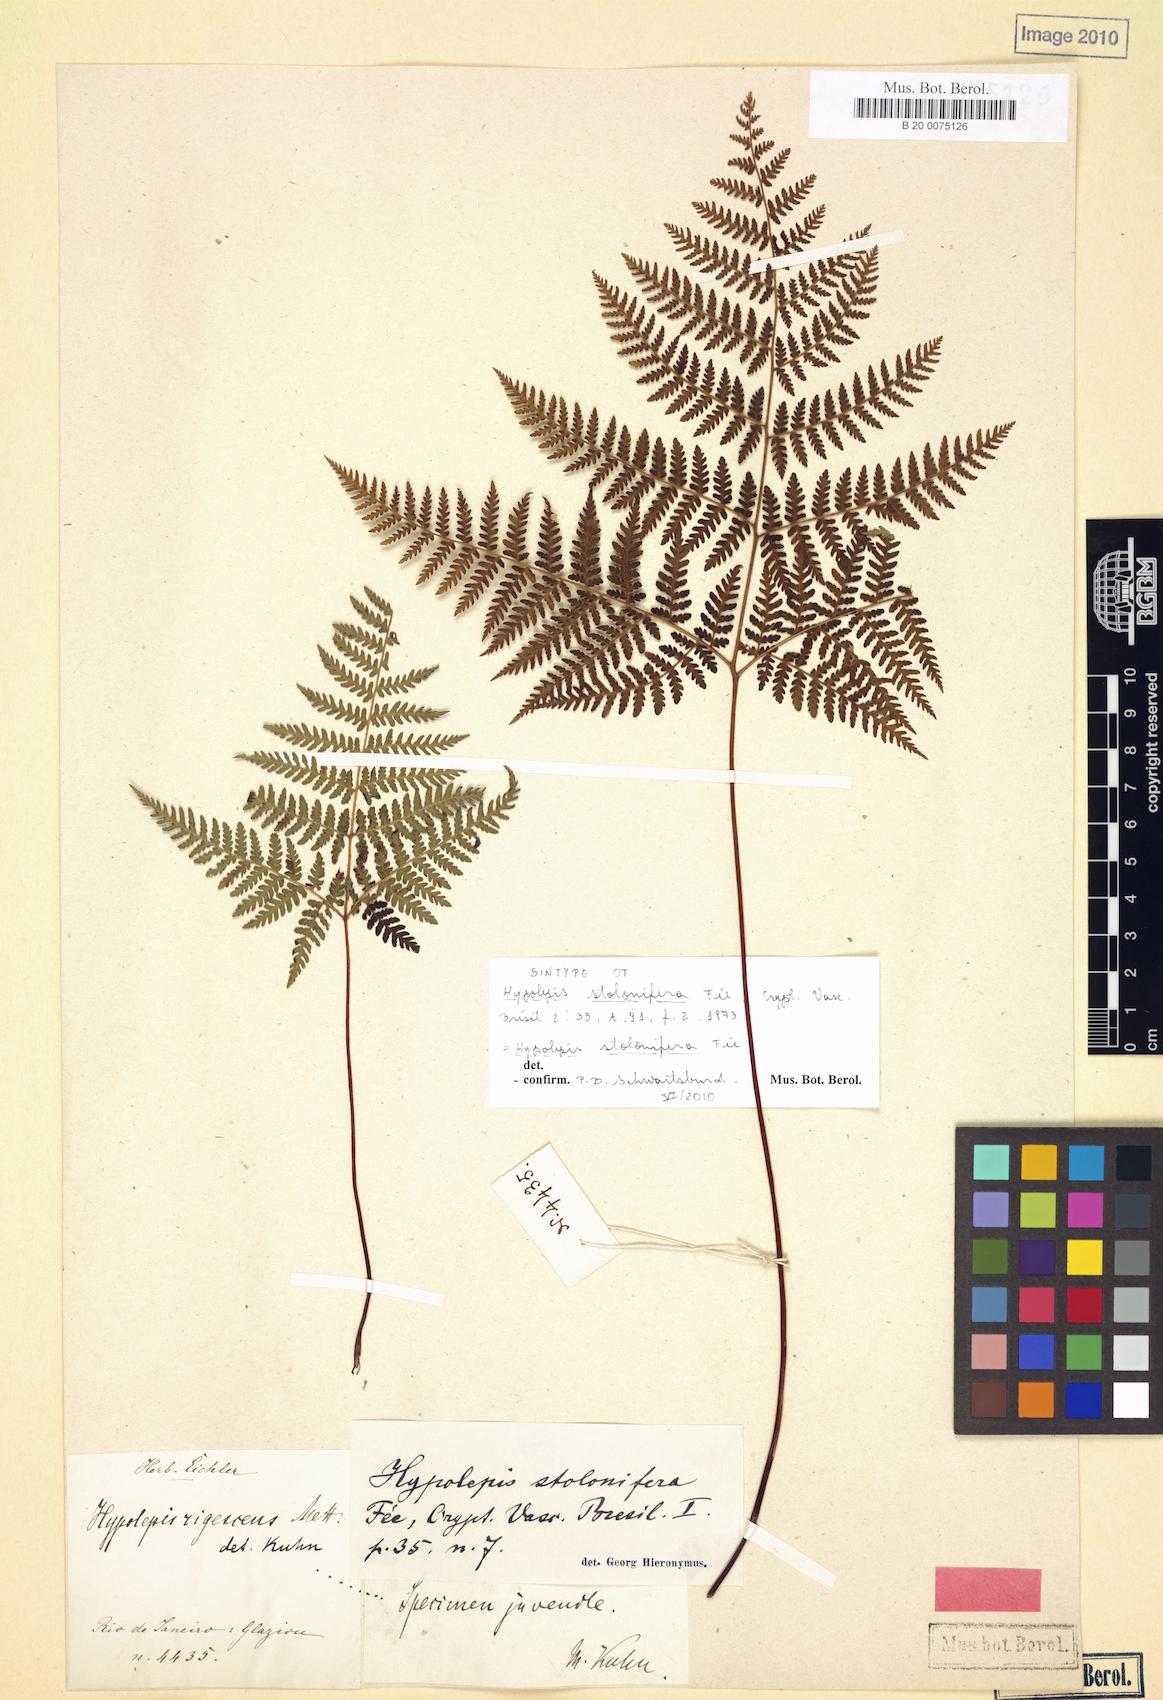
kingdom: Plantae
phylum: Tracheophyta
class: Polypodiopsida
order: Polypodiales
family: Dennstaedtiaceae
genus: Hypolepis
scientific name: Hypolepis stolonifera
